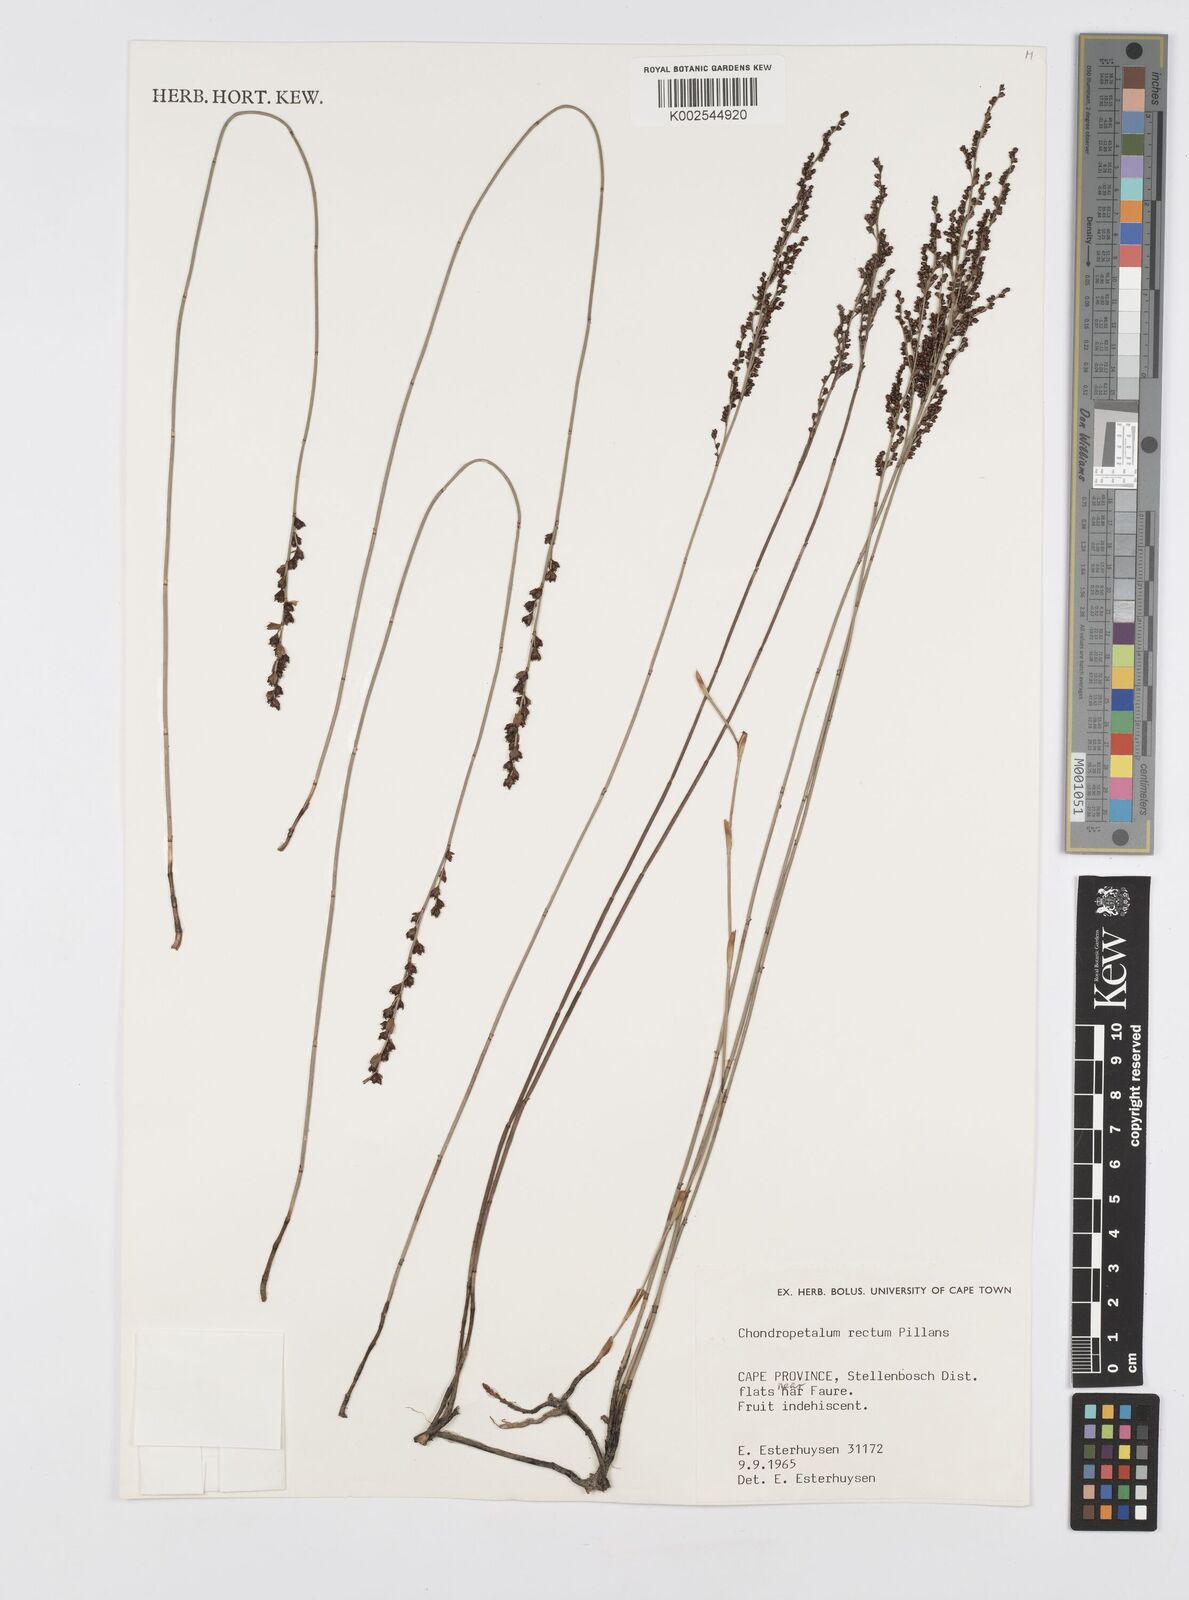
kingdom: Plantae
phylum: Tracheophyta
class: Liliopsida
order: Poales
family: Restionaceae
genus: Elegia
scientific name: Elegia recta
